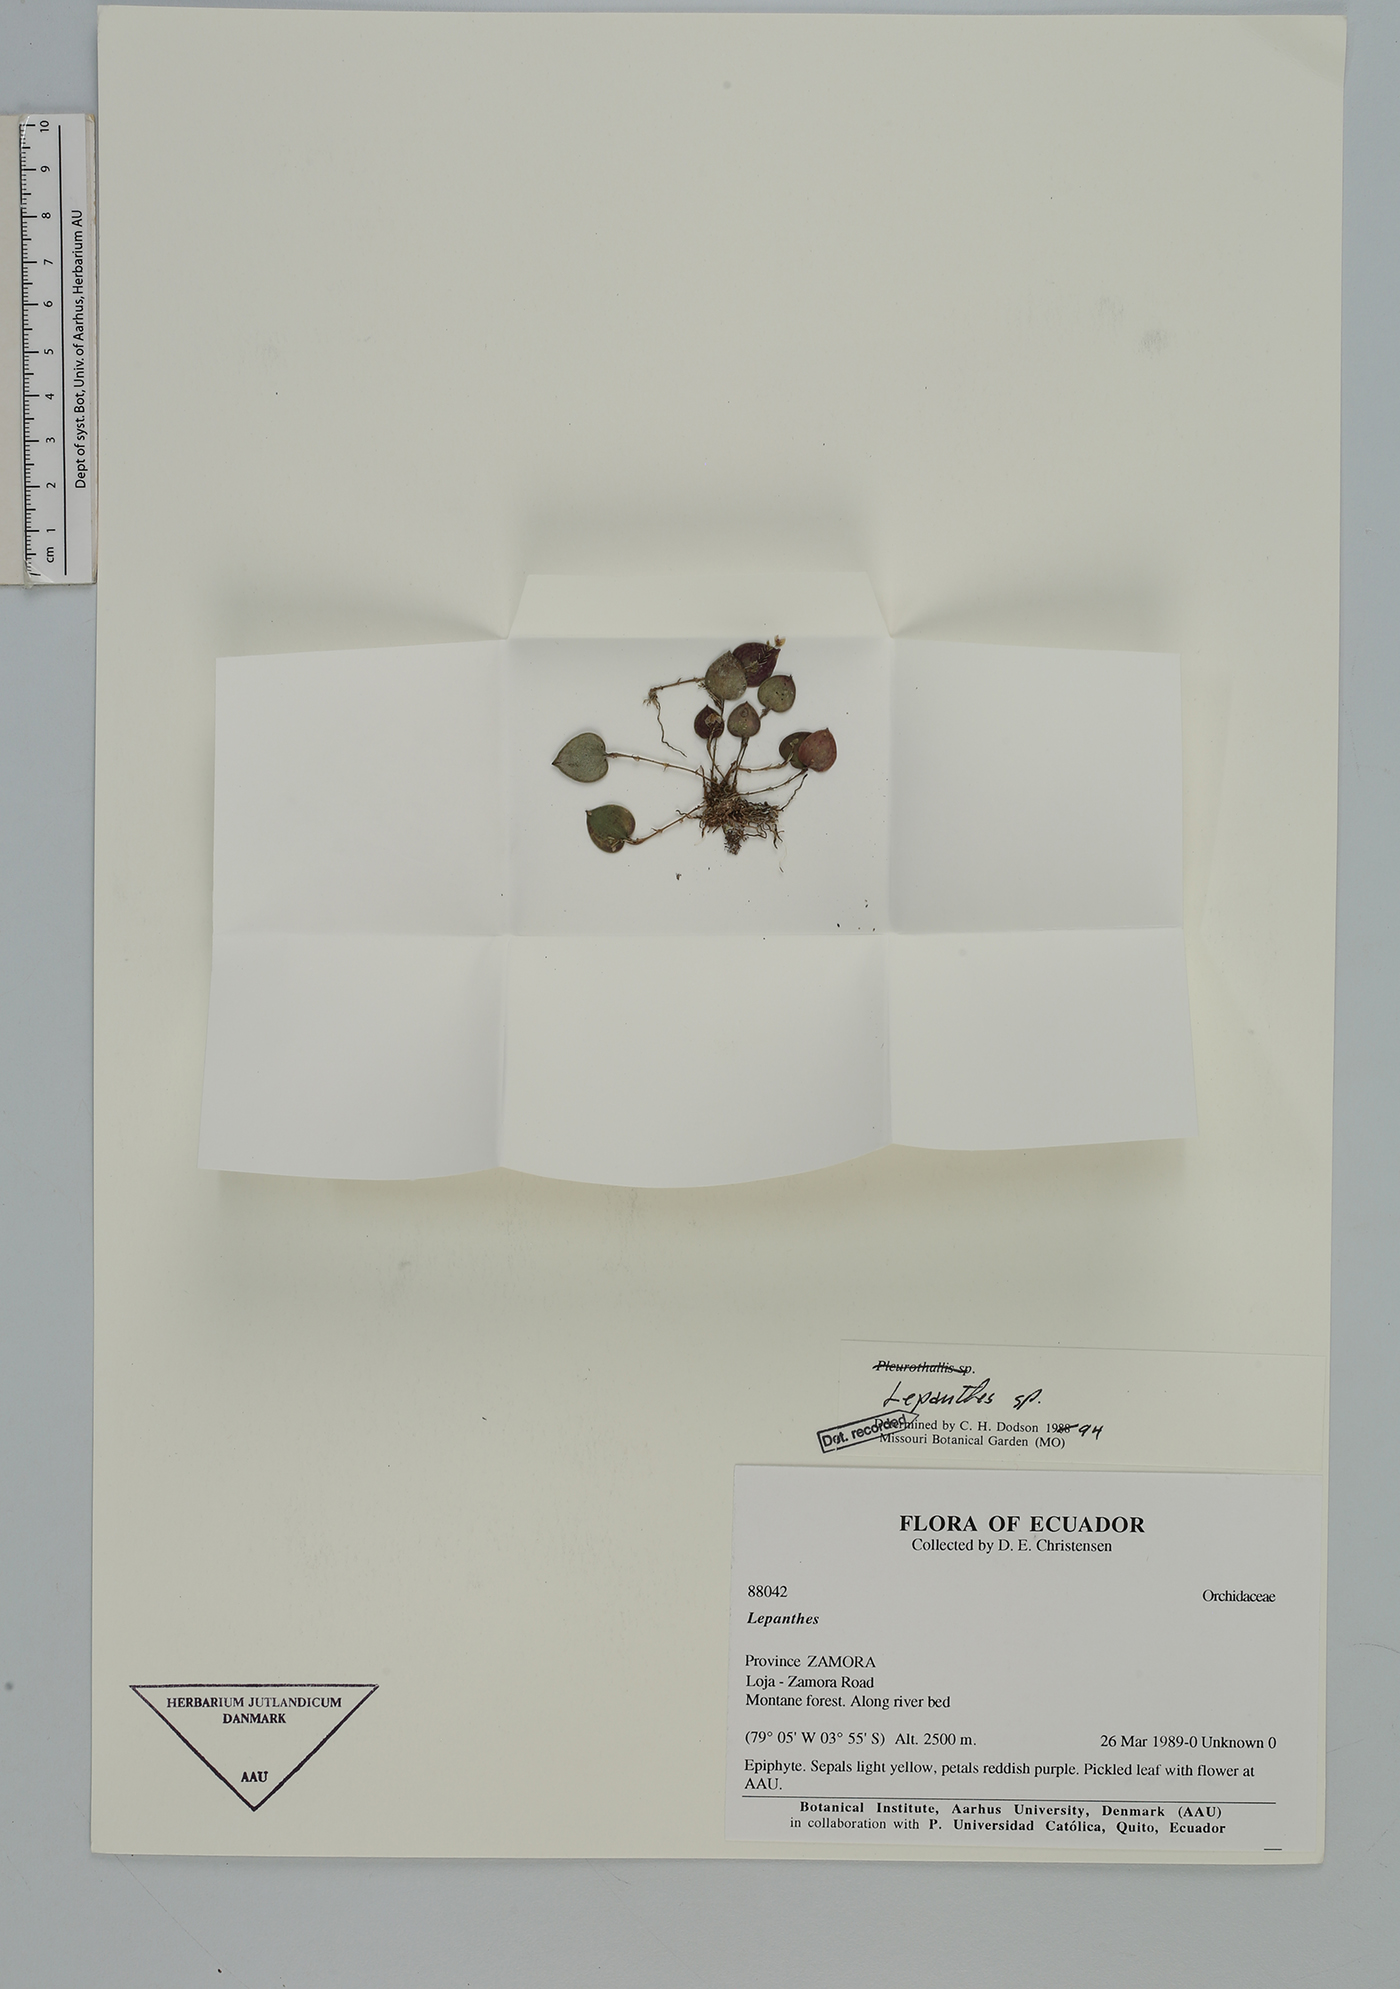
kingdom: Plantae
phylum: Tracheophyta
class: Liliopsida
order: Asparagales
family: Orchidaceae
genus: Lepanthes
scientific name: Lepanthes
